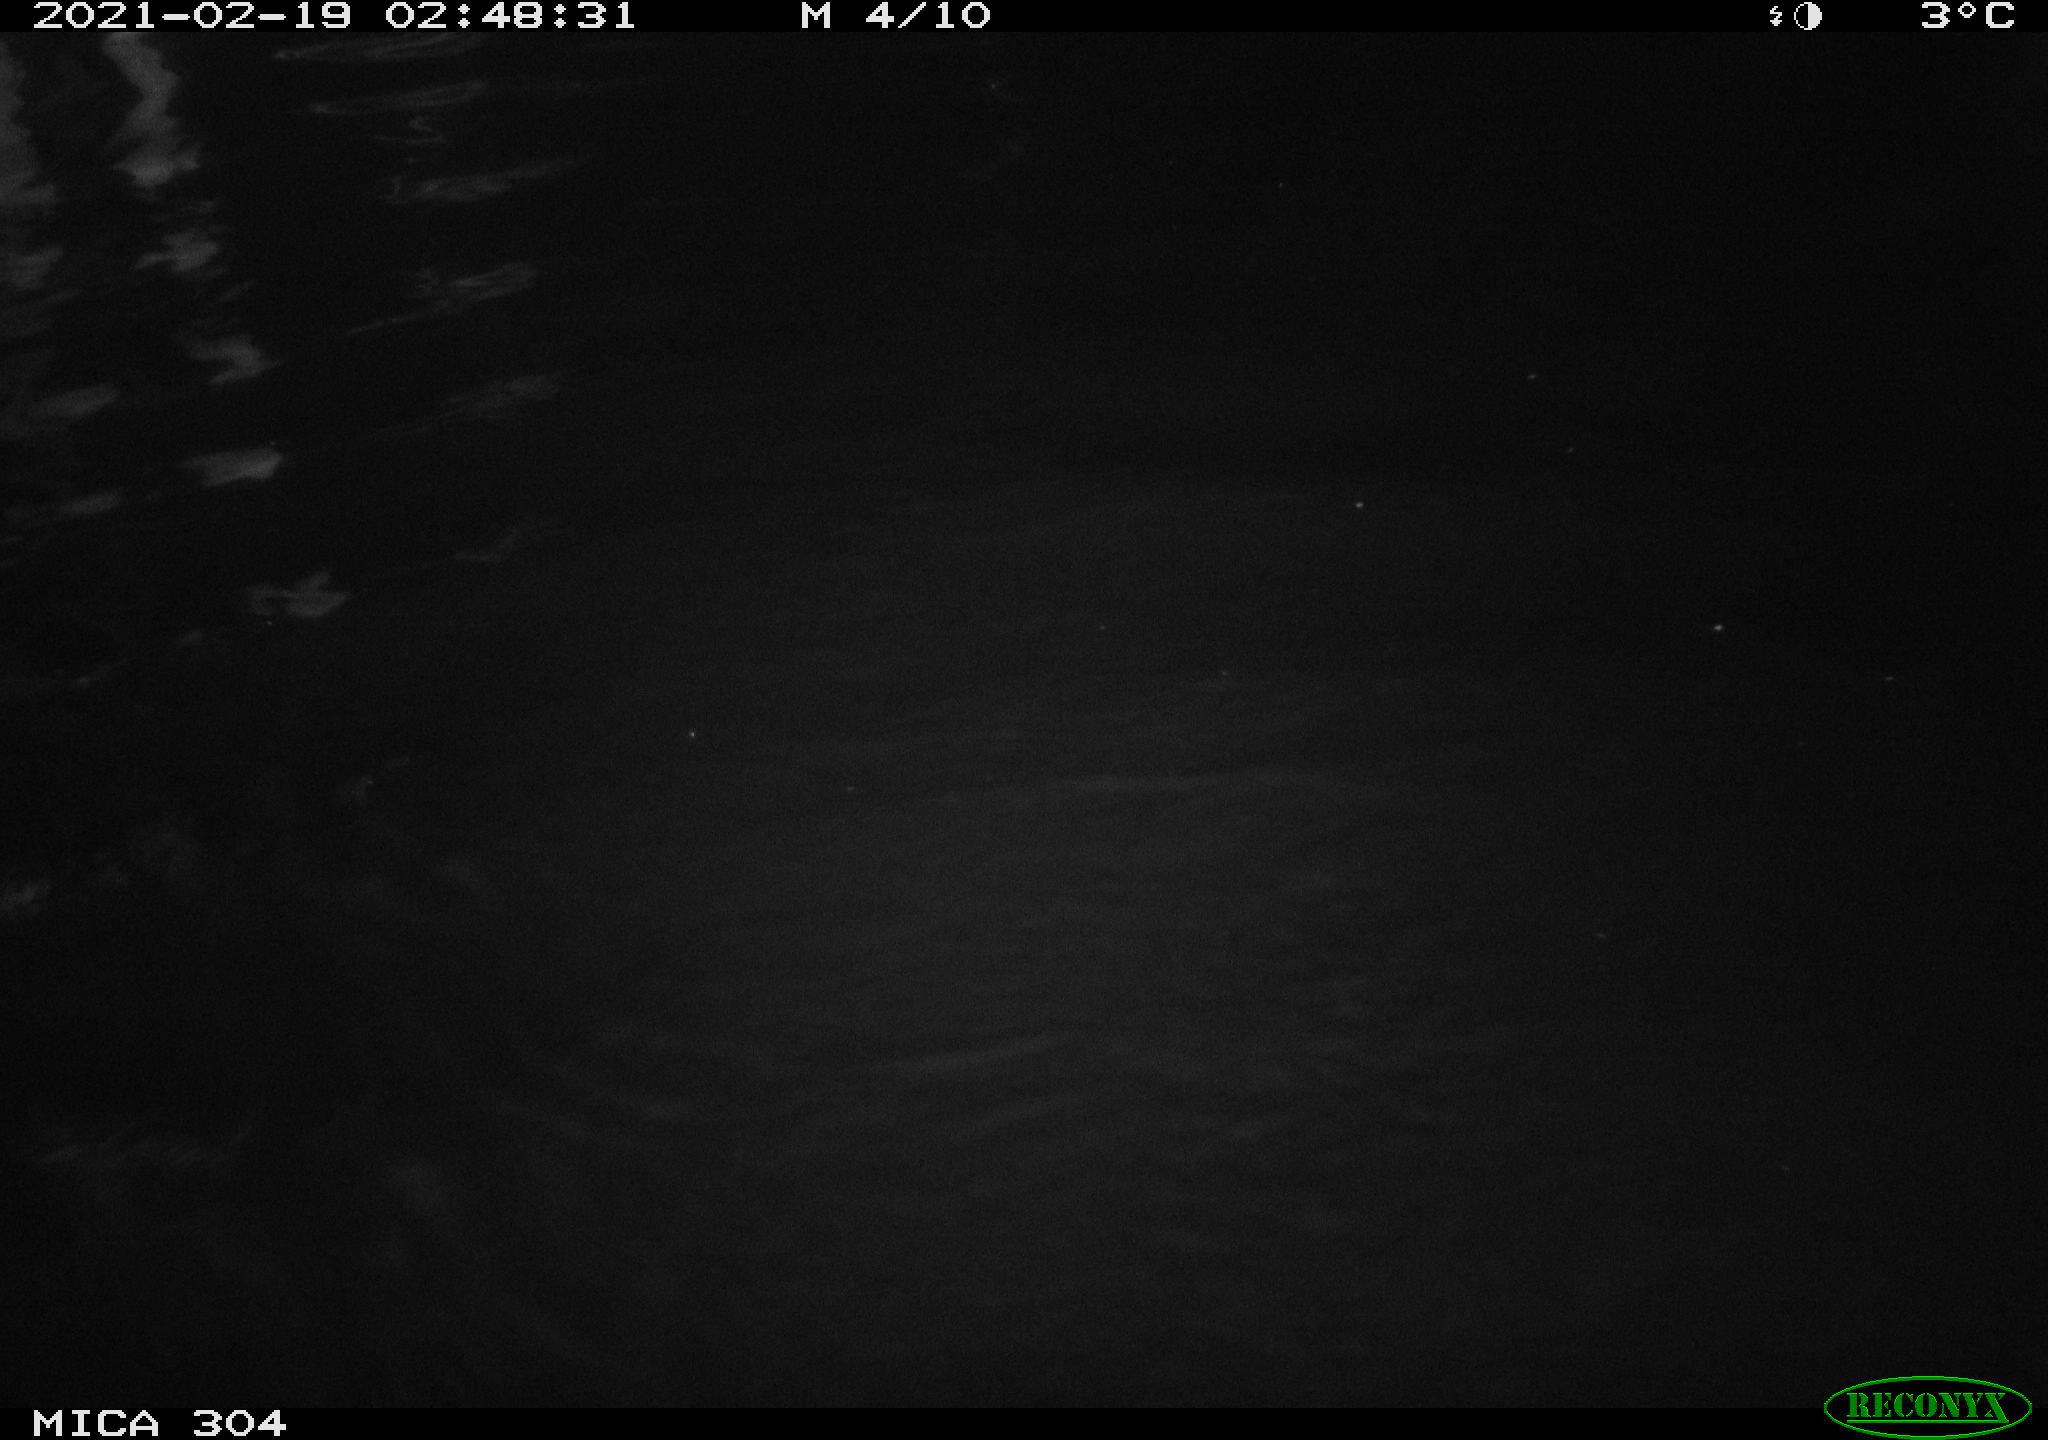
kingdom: Animalia
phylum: Chordata
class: Mammalia
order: Rodentia
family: Cricetidae
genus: Ondatra
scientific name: Ondatra zibethicus
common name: Muskrat
